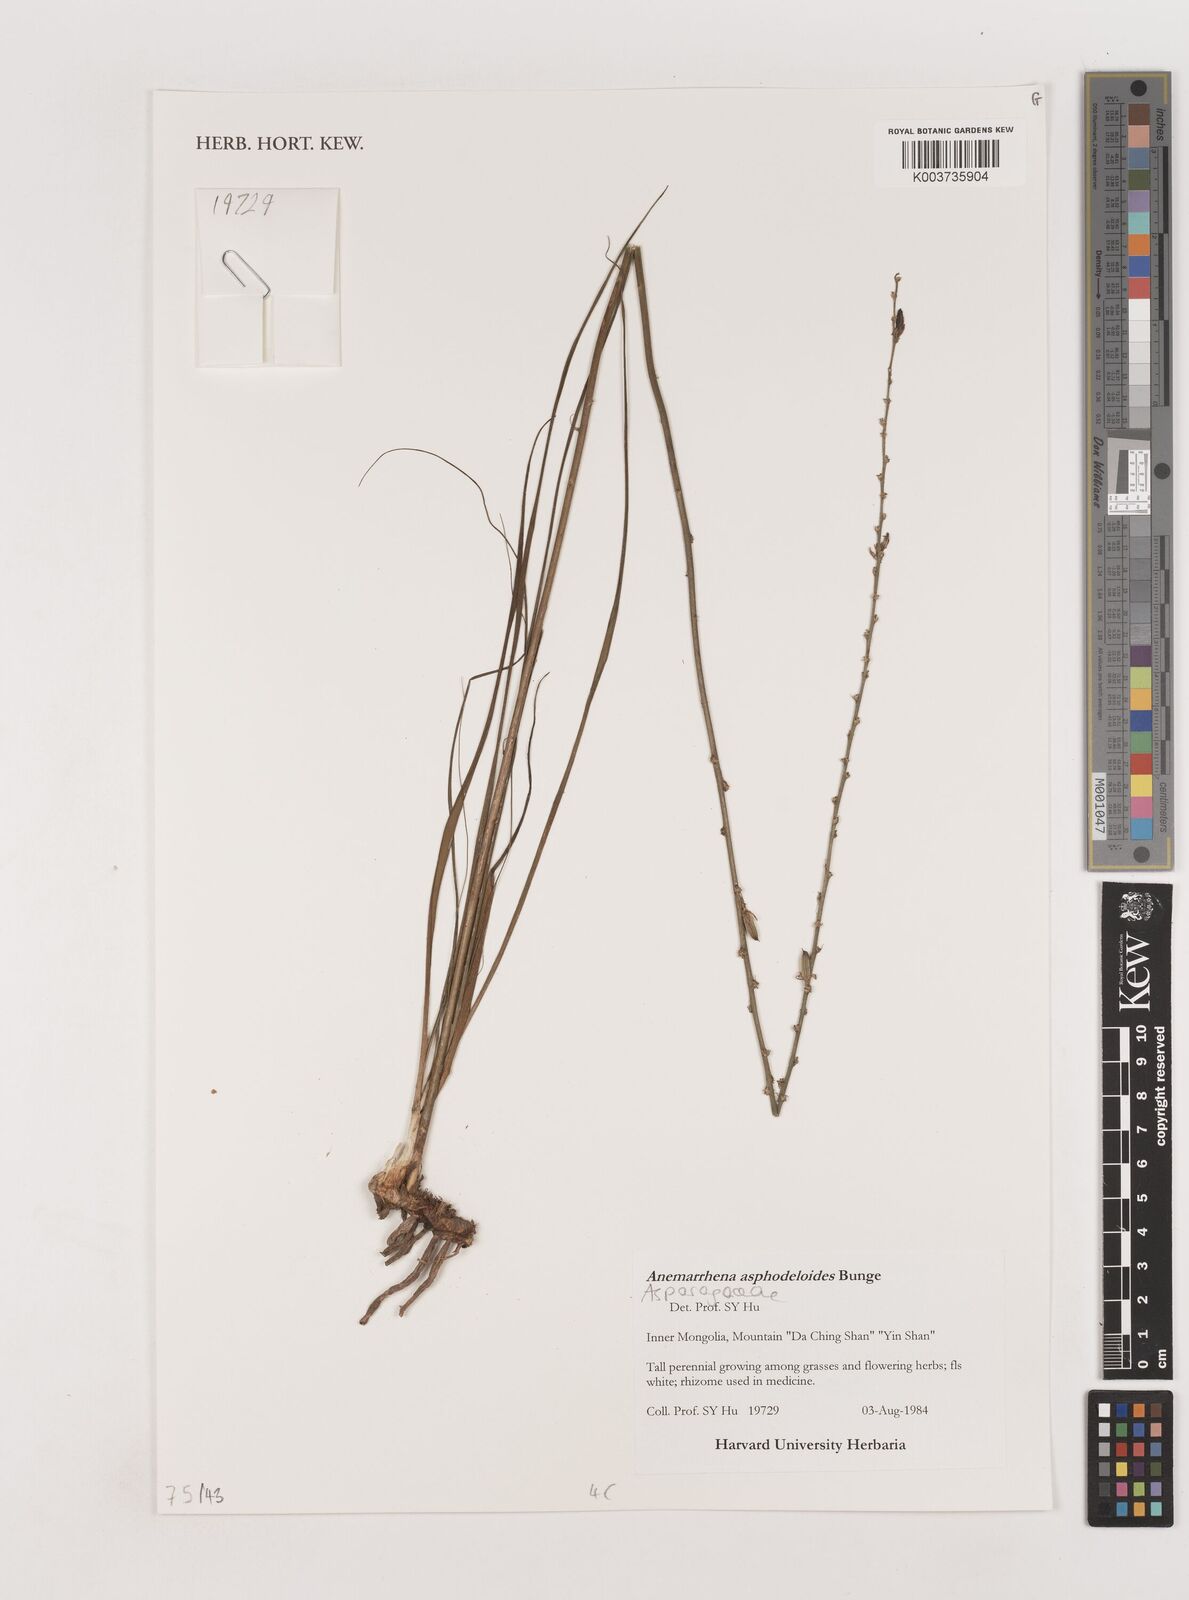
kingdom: Plantae
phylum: Tracheophyta
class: Liliopsida
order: Asparagales
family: Asparagaceae
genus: Anemarrhena
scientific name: Anemarrhena asphodeloides
